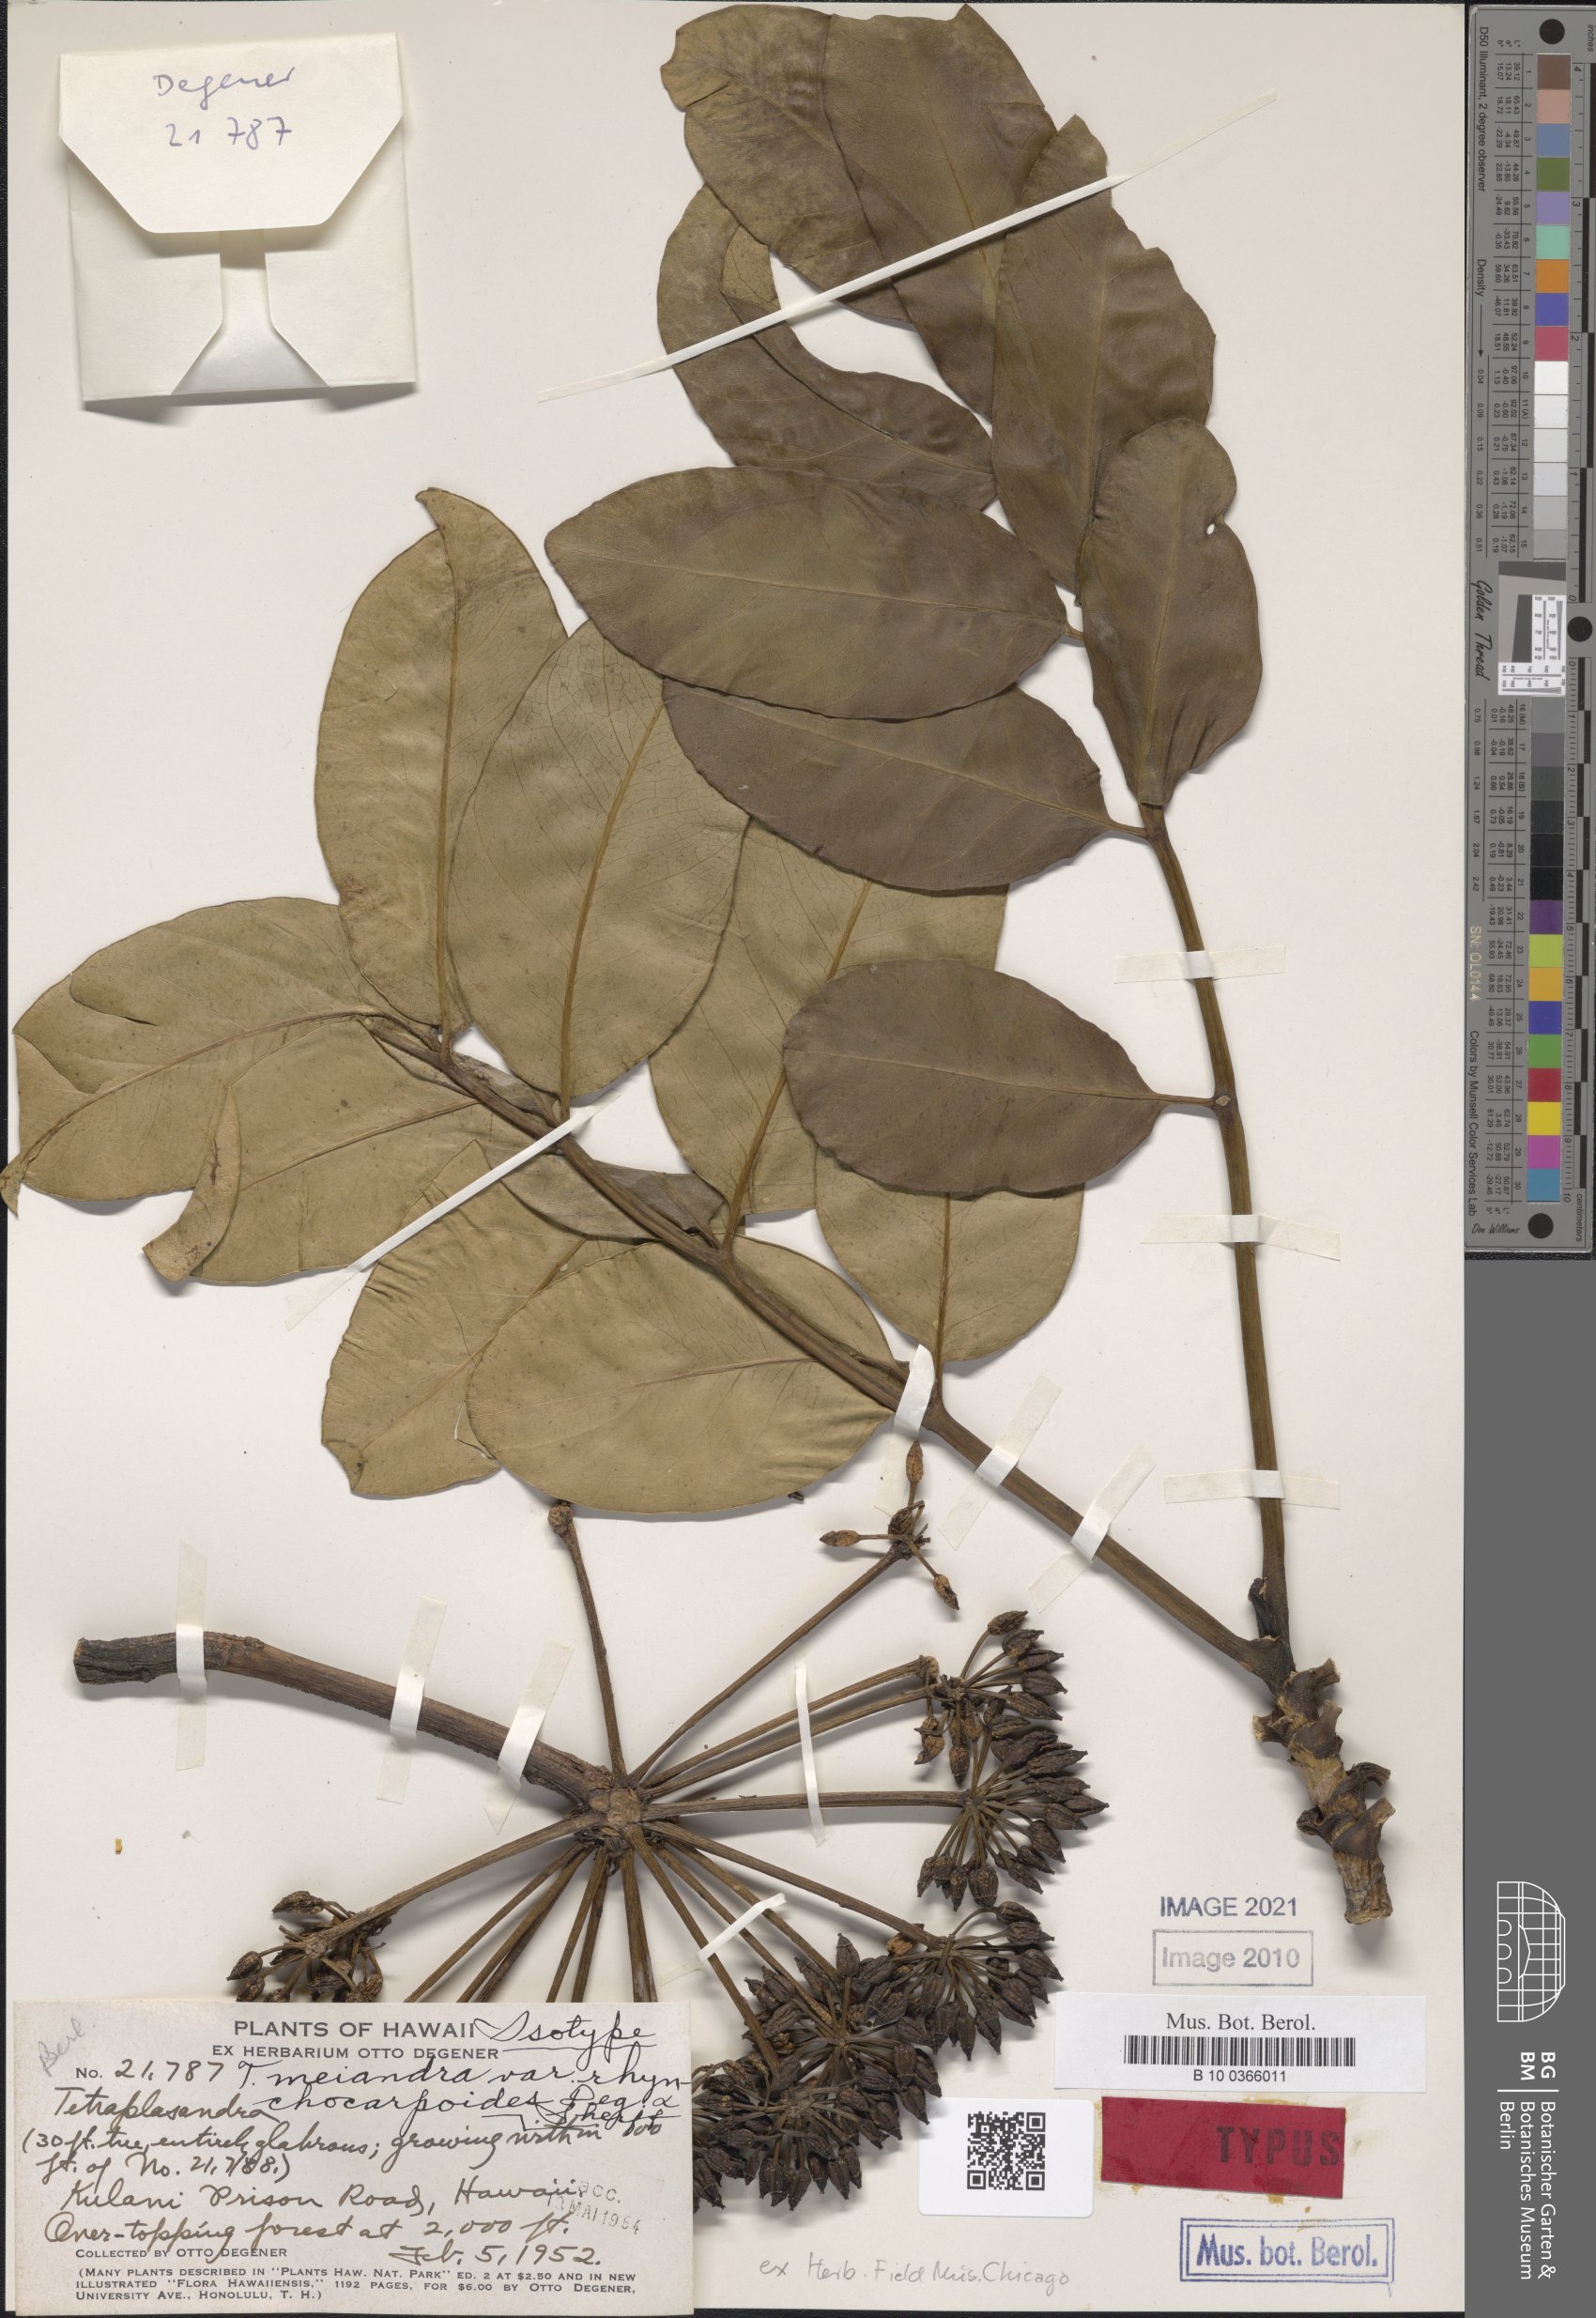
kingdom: Plantae
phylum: Tracheophyta
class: Magnoliopsida
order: Apiales
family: Araliaceae
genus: Polyscias
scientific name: Polyscias oahuensis
